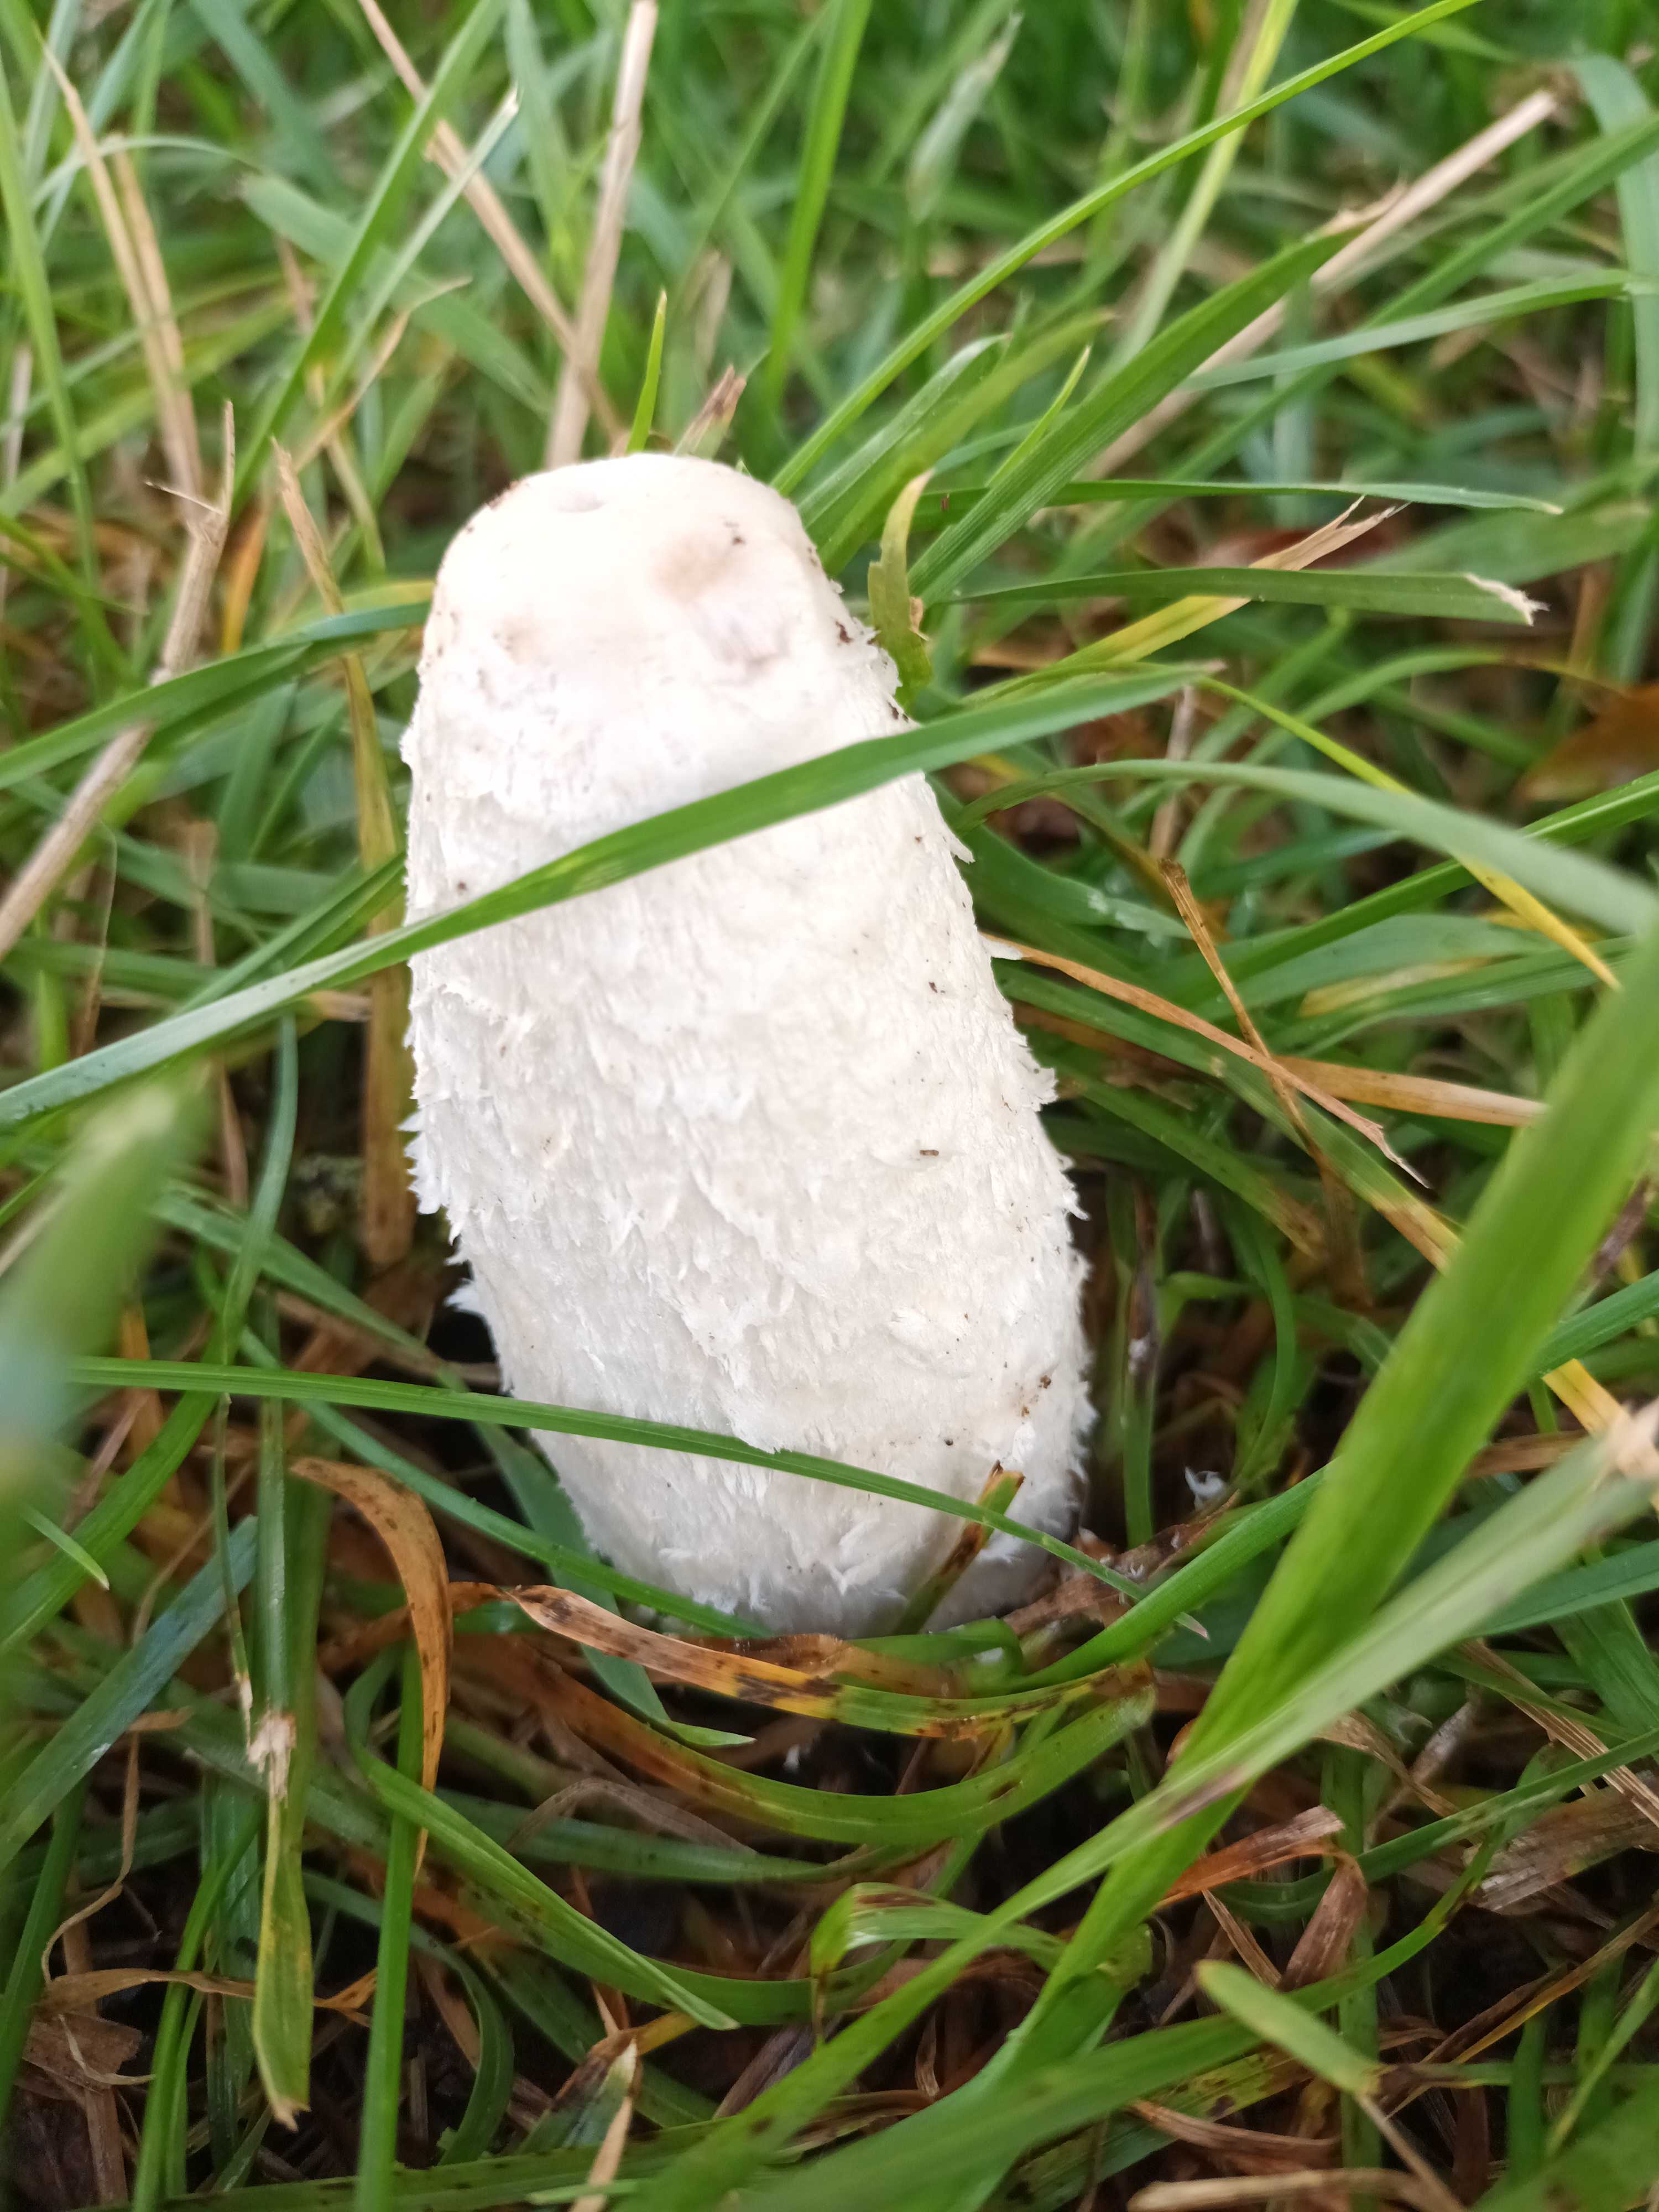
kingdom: Fungi
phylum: Basidiomycota
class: Agaricomycetes
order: Agaricales
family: Agaricaceae
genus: Coprinus
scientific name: Coprinus comatus
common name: stor parykhat
